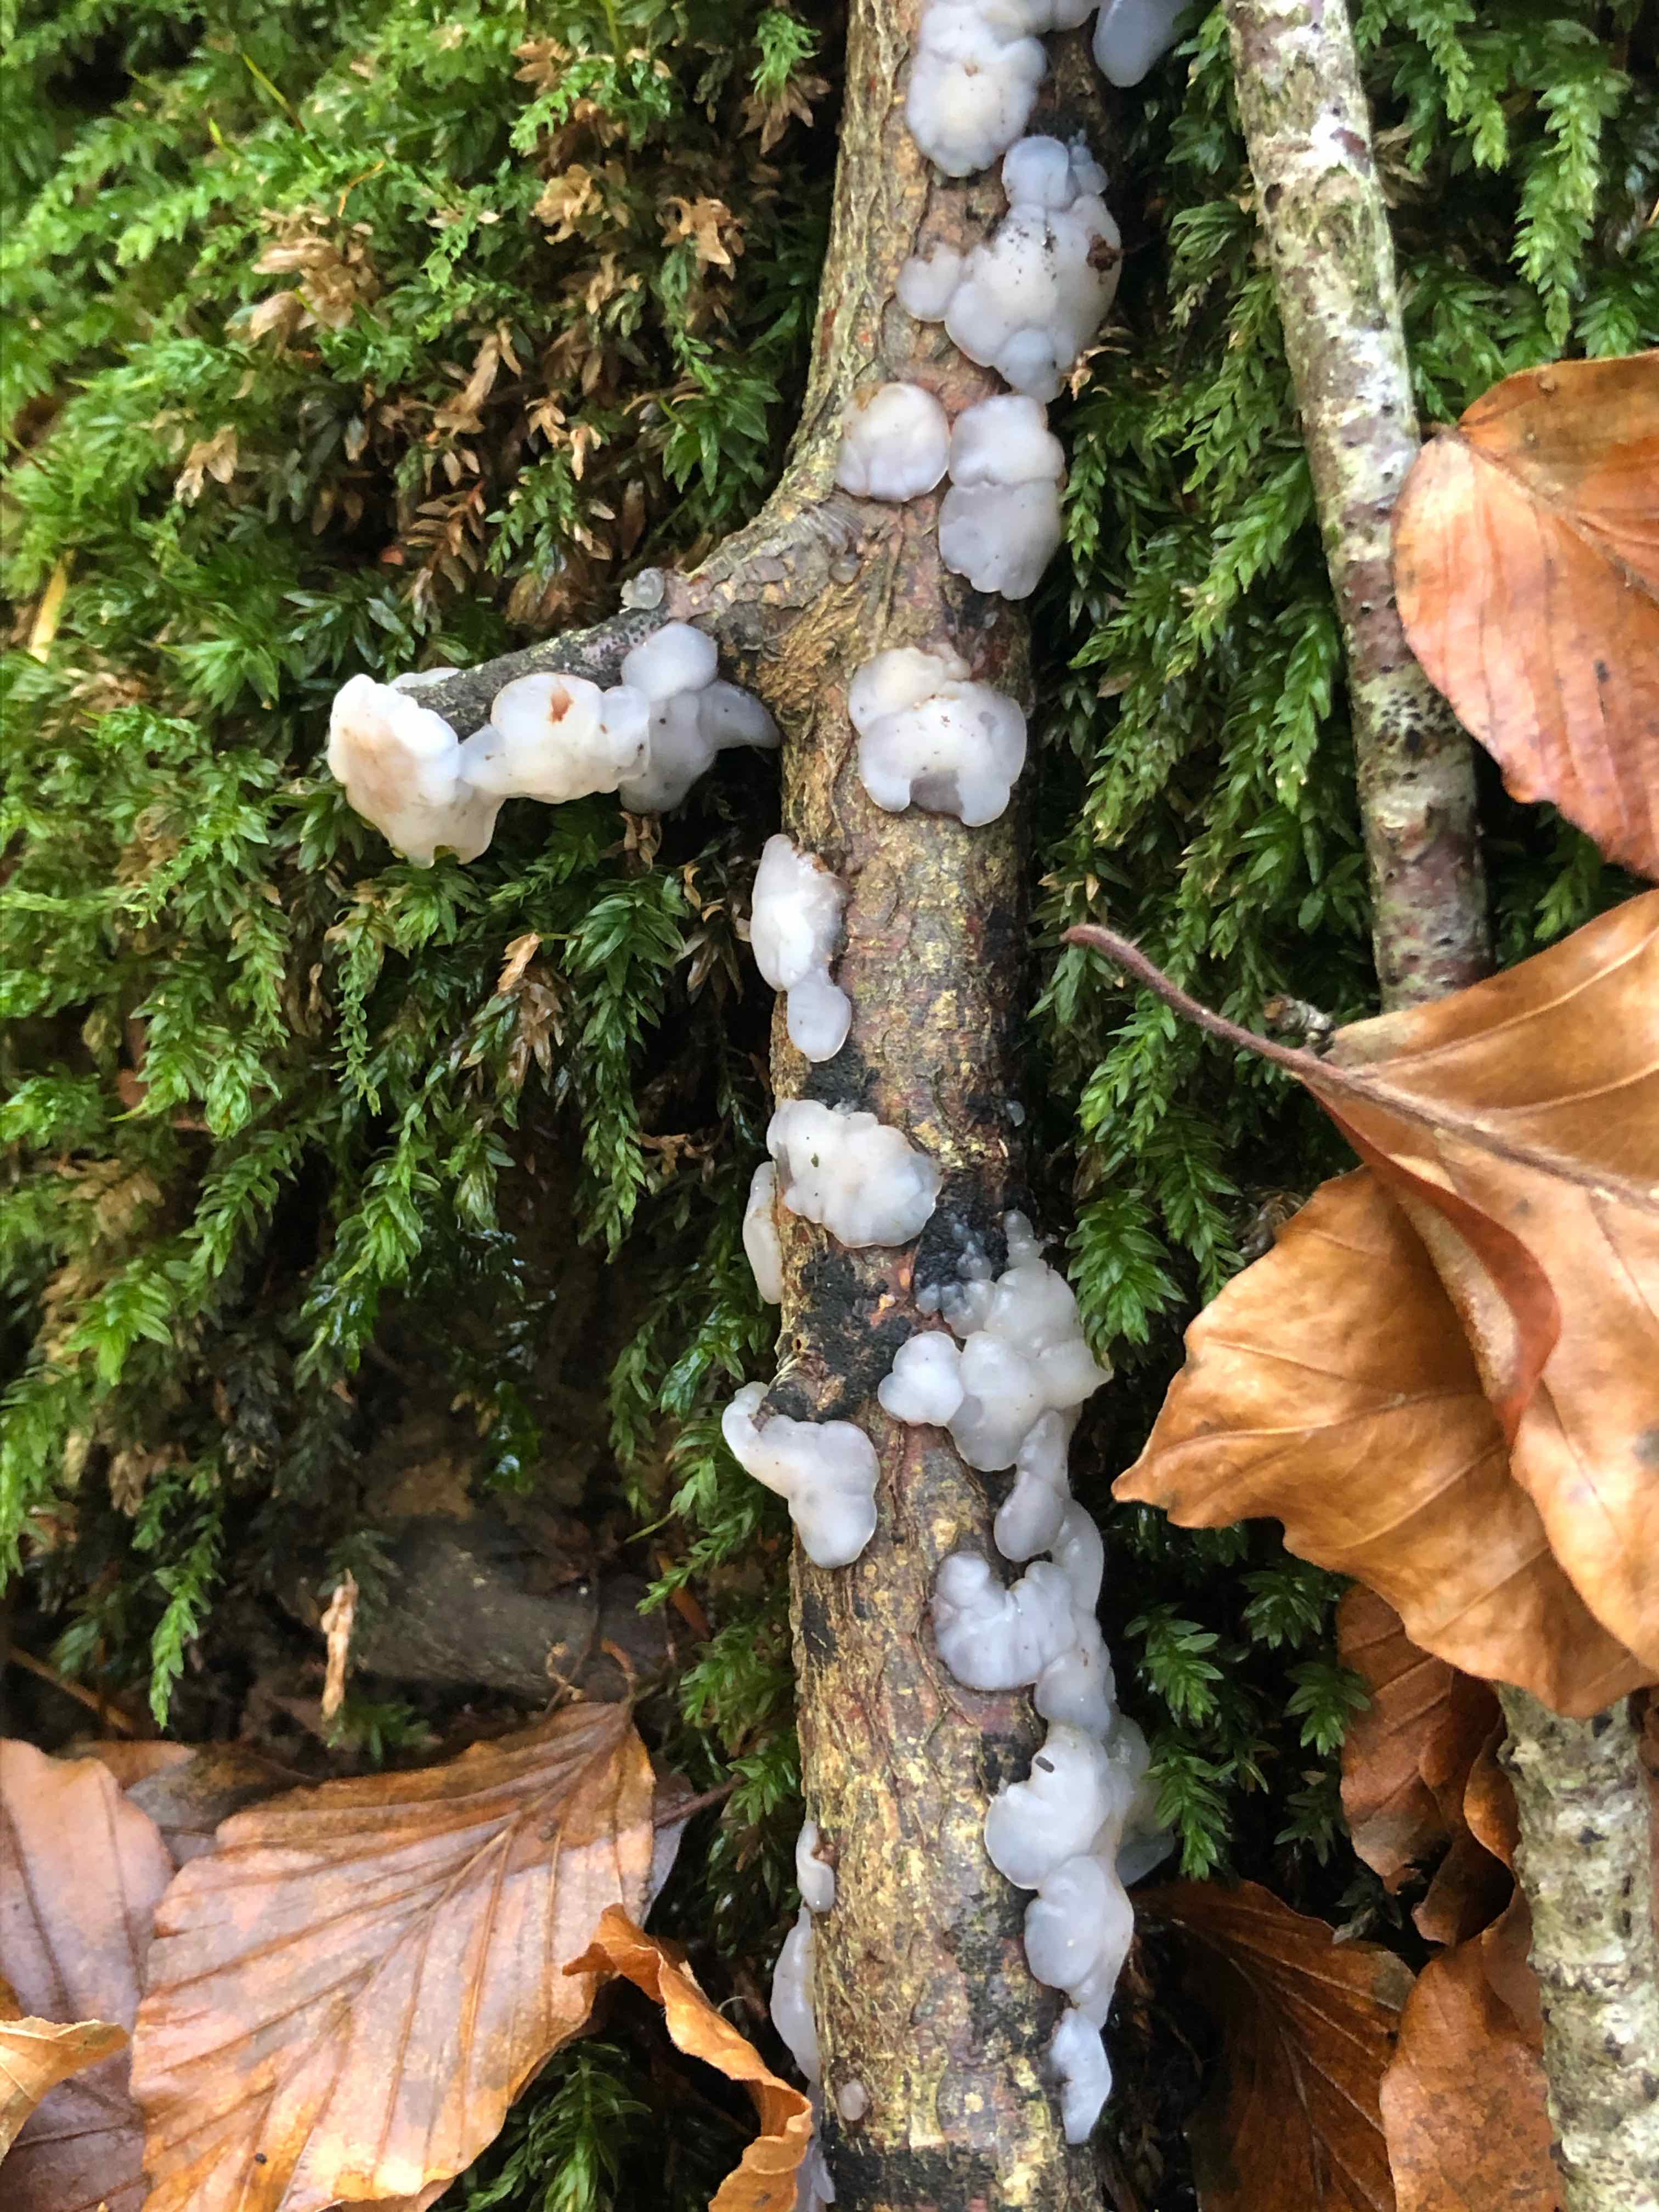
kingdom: Fungi
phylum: Basidiomycota
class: Agaricomycetes
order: Auriculariales
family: Auriculariaceae
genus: Exidia
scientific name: Exidia thuretiana
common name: hvidlig bævretop
